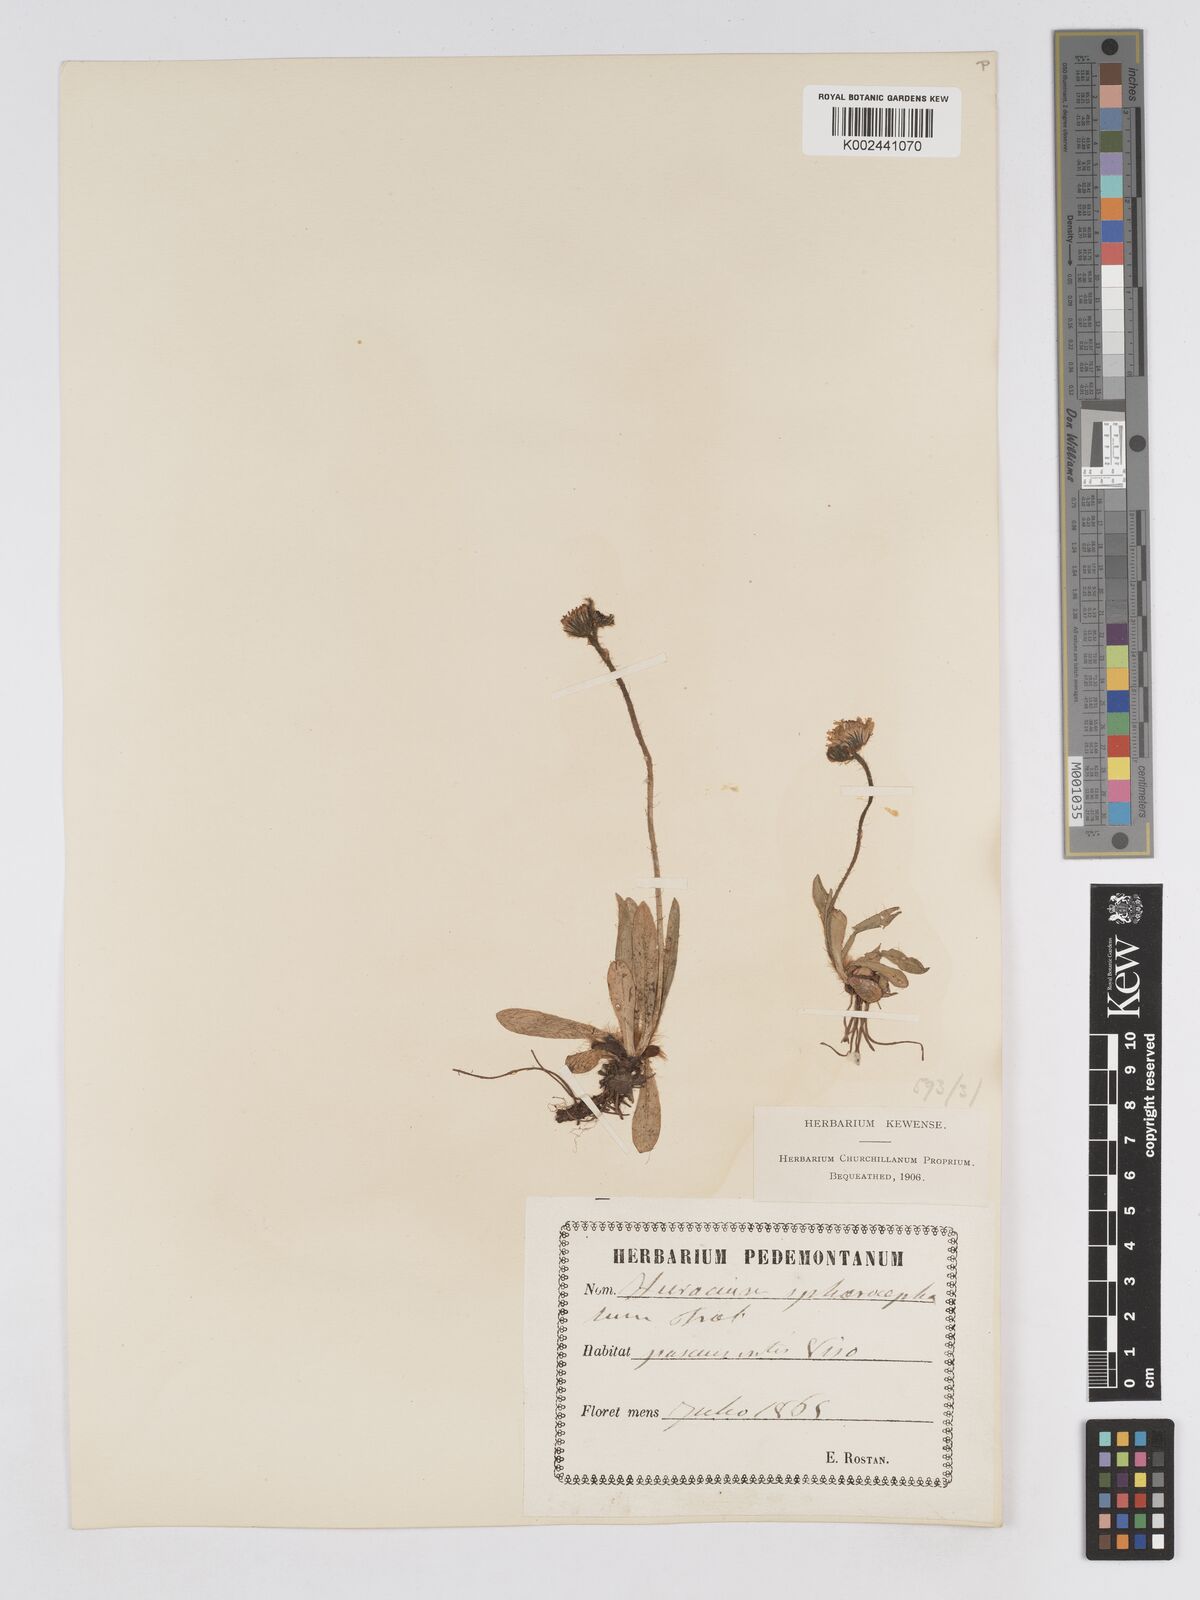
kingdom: Plantae
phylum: Tracheophyta
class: Magnoliopsida
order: Asterales
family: Asteraceae
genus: Pilosella
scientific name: Pilosella sphaerocephala
